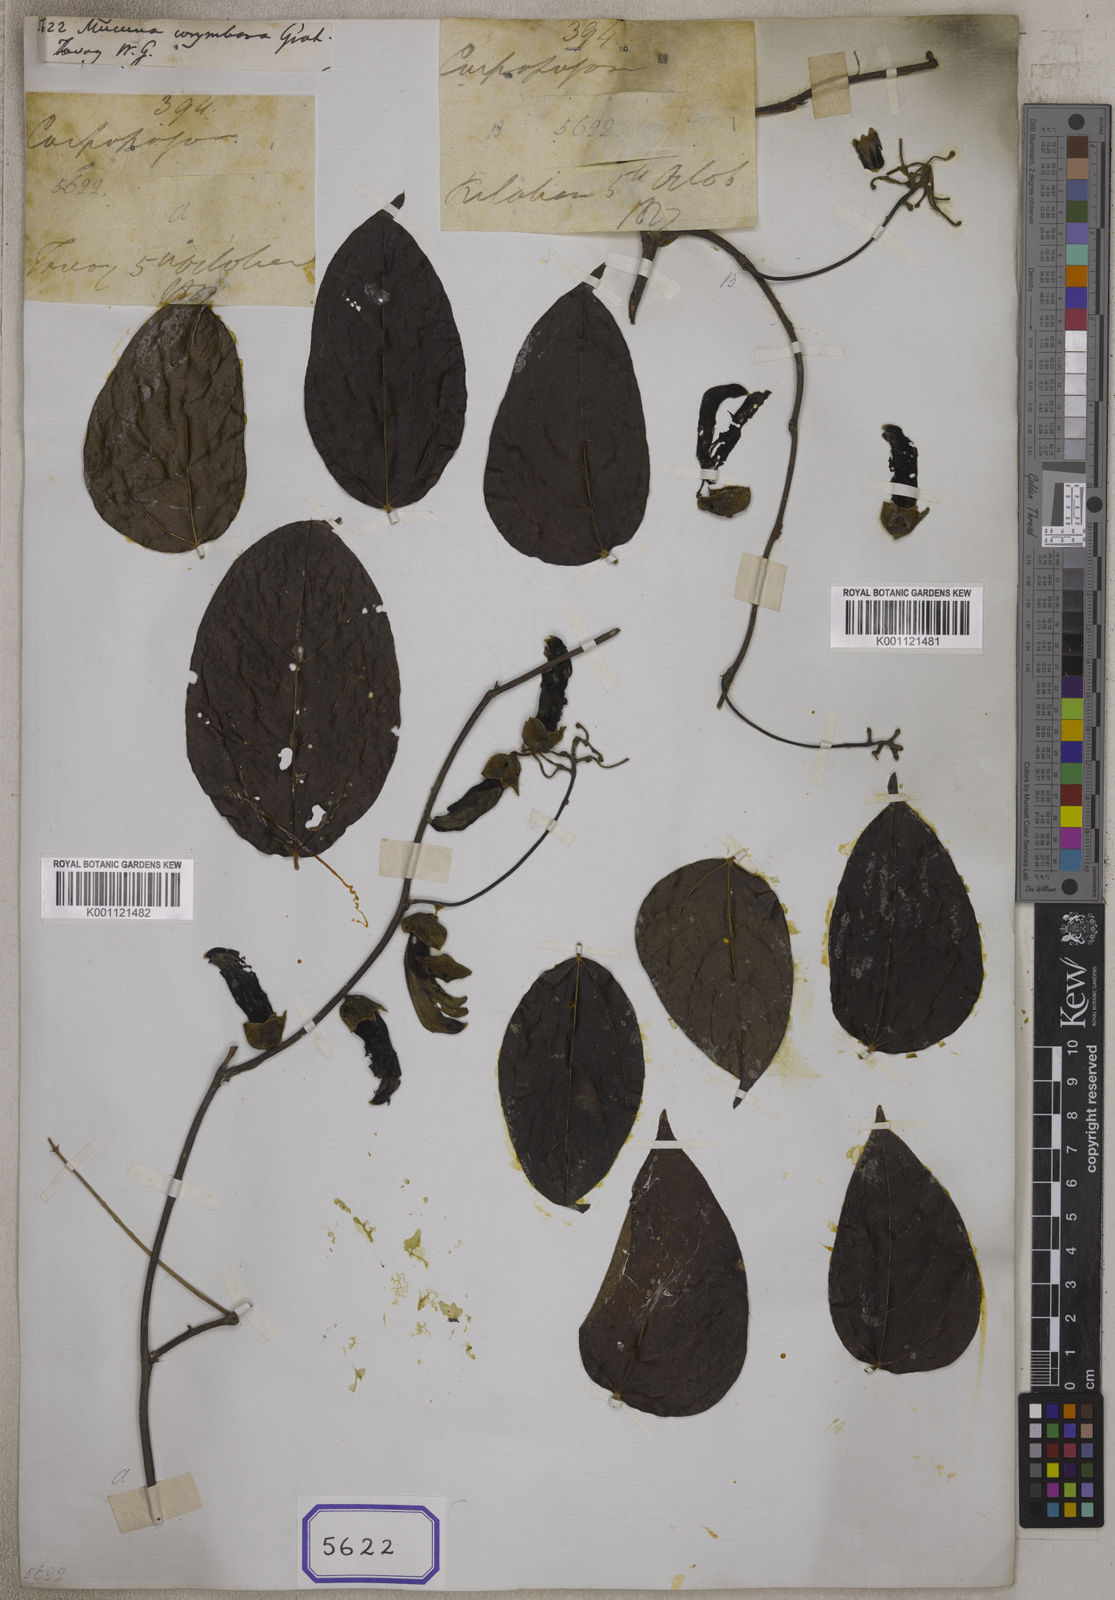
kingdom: Plantae
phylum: Tracheophyta
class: Magnoliopsida
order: Fabales
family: Fabaceae
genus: Mucuna
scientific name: Mucuna monosperma
